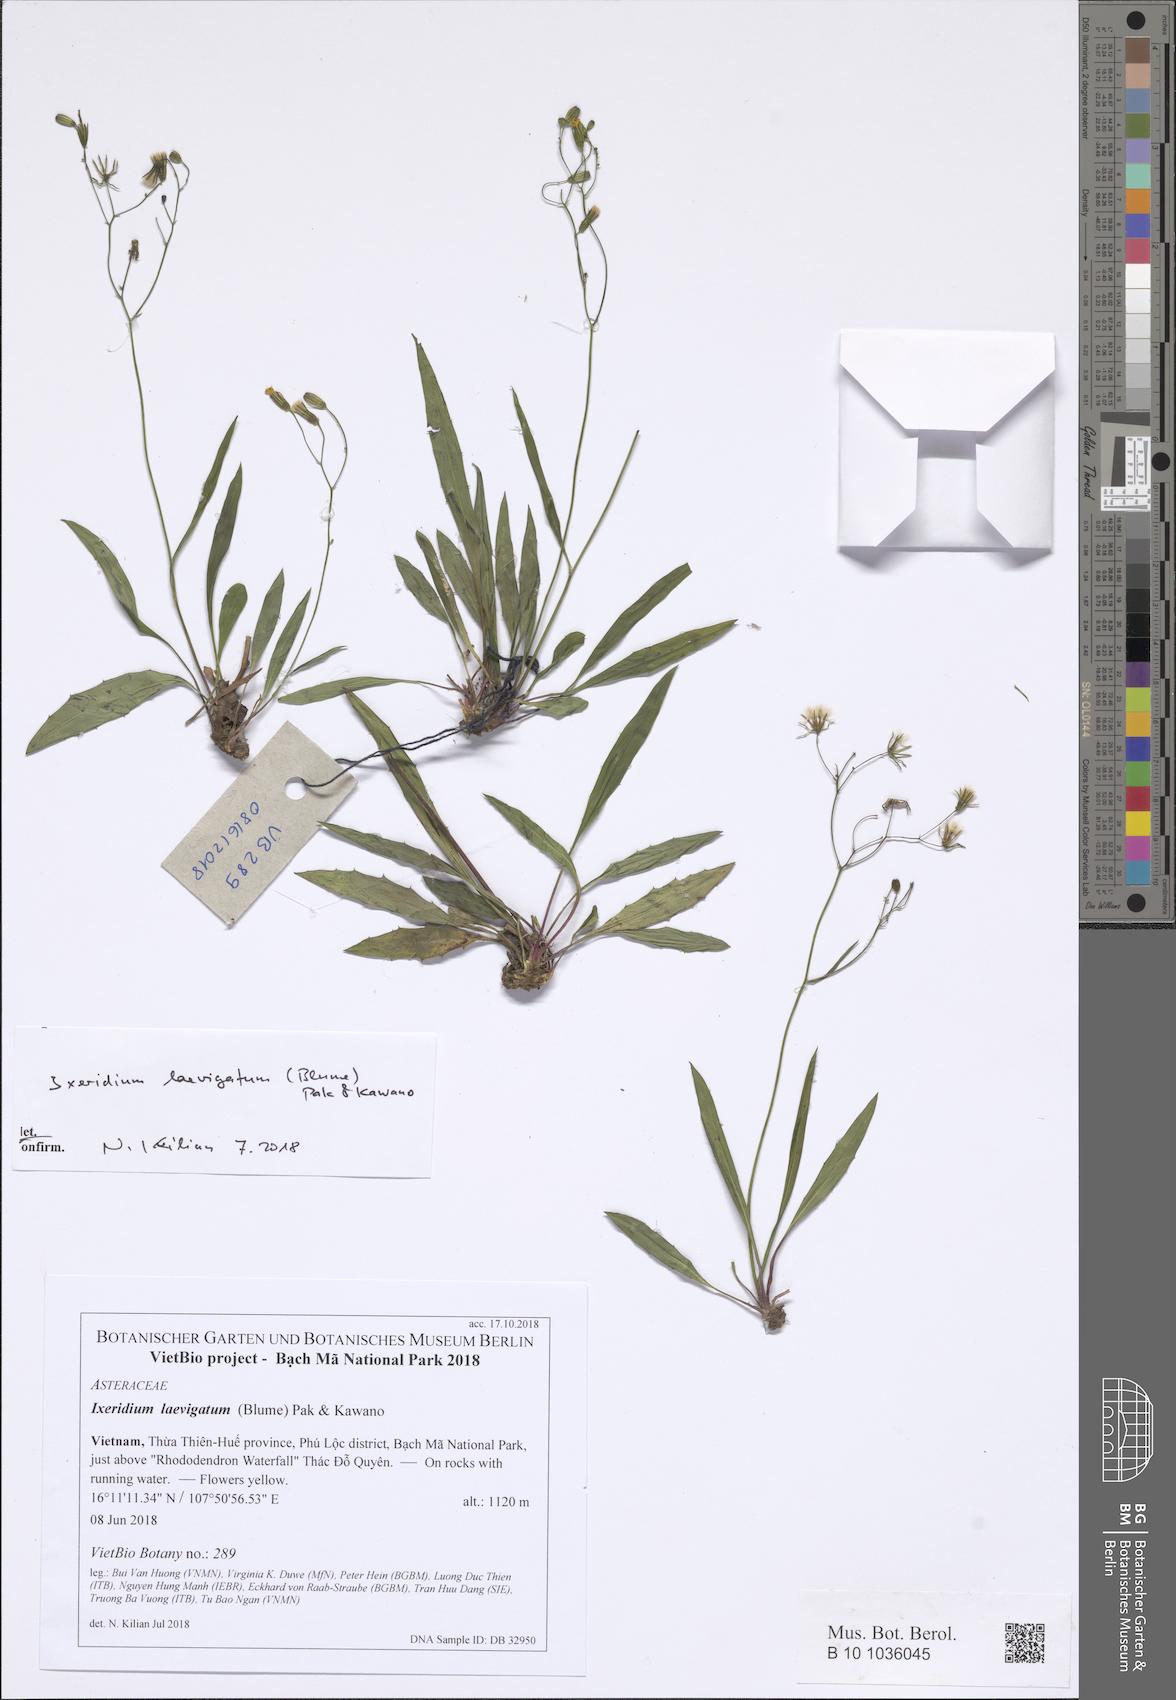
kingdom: Plantae
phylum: Tracheophyta
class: Magnoliopsida
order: Asterales
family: Asteraceae
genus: Ixeridium
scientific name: Ixeridium laevigatum
